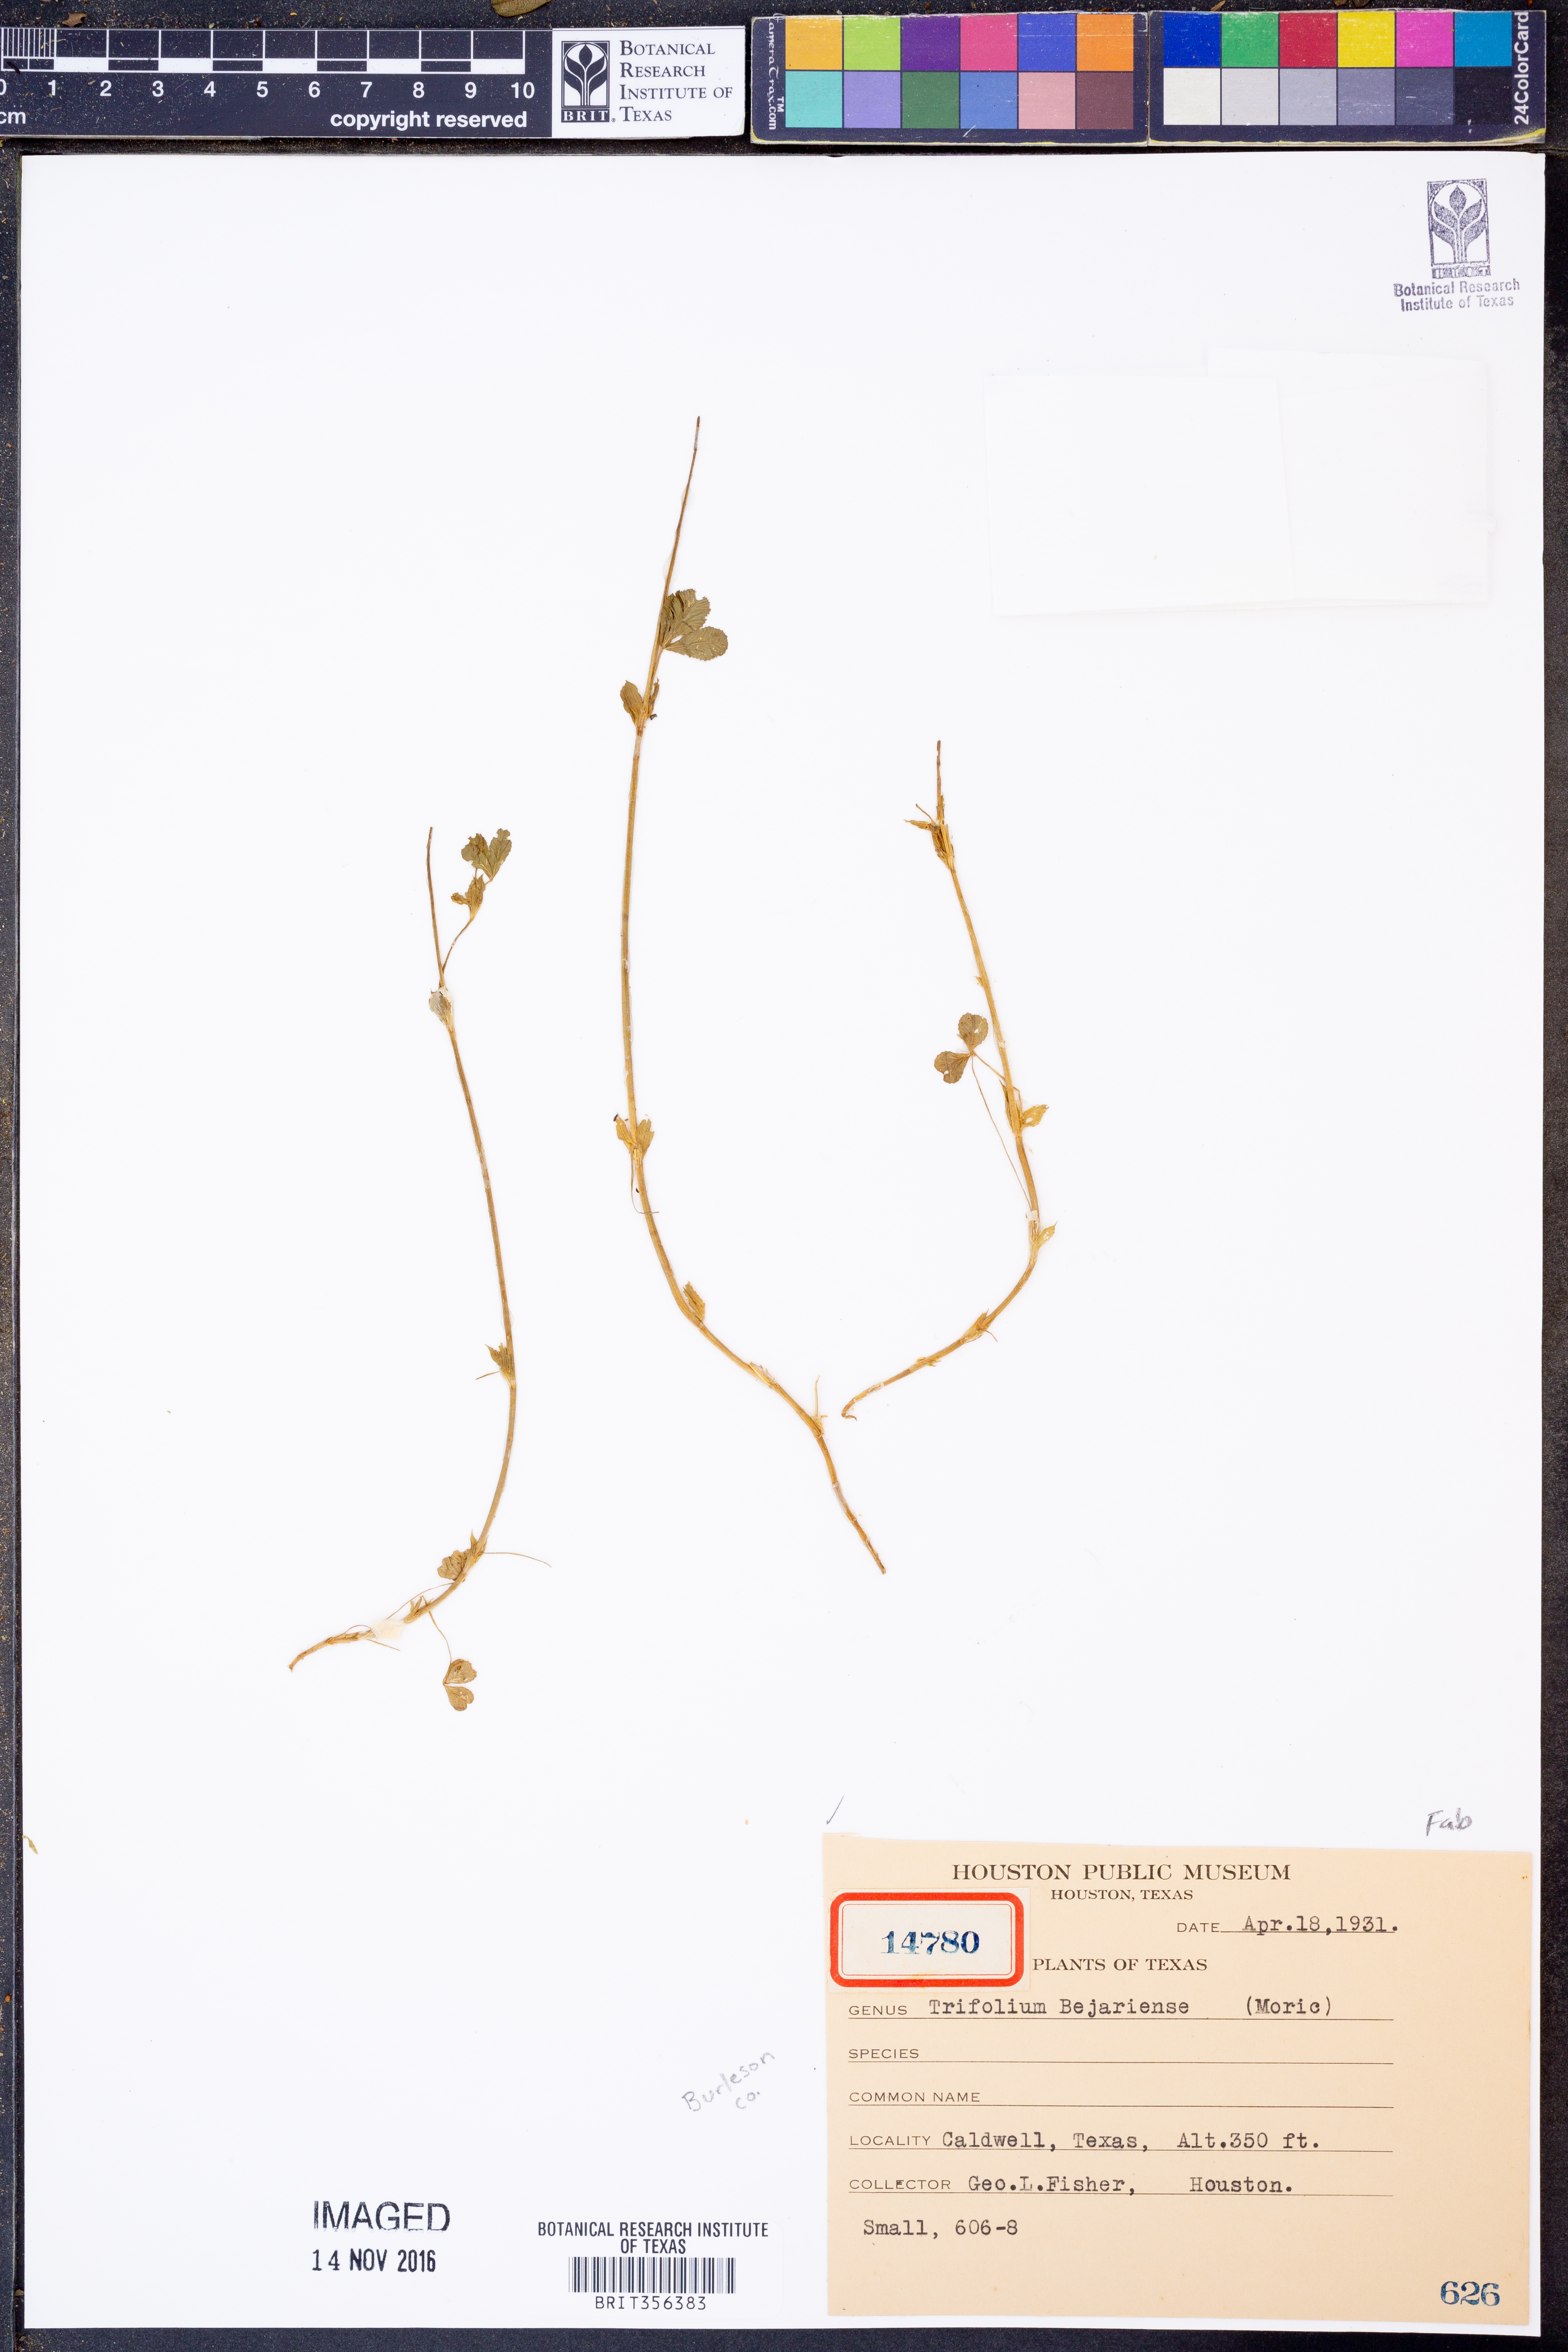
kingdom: Plantae
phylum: Tracheophyta
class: Magnoliopsida
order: Fabales
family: Fabaceae
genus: Trifolium
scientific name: Trifolium bejariense
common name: Bejar clover
